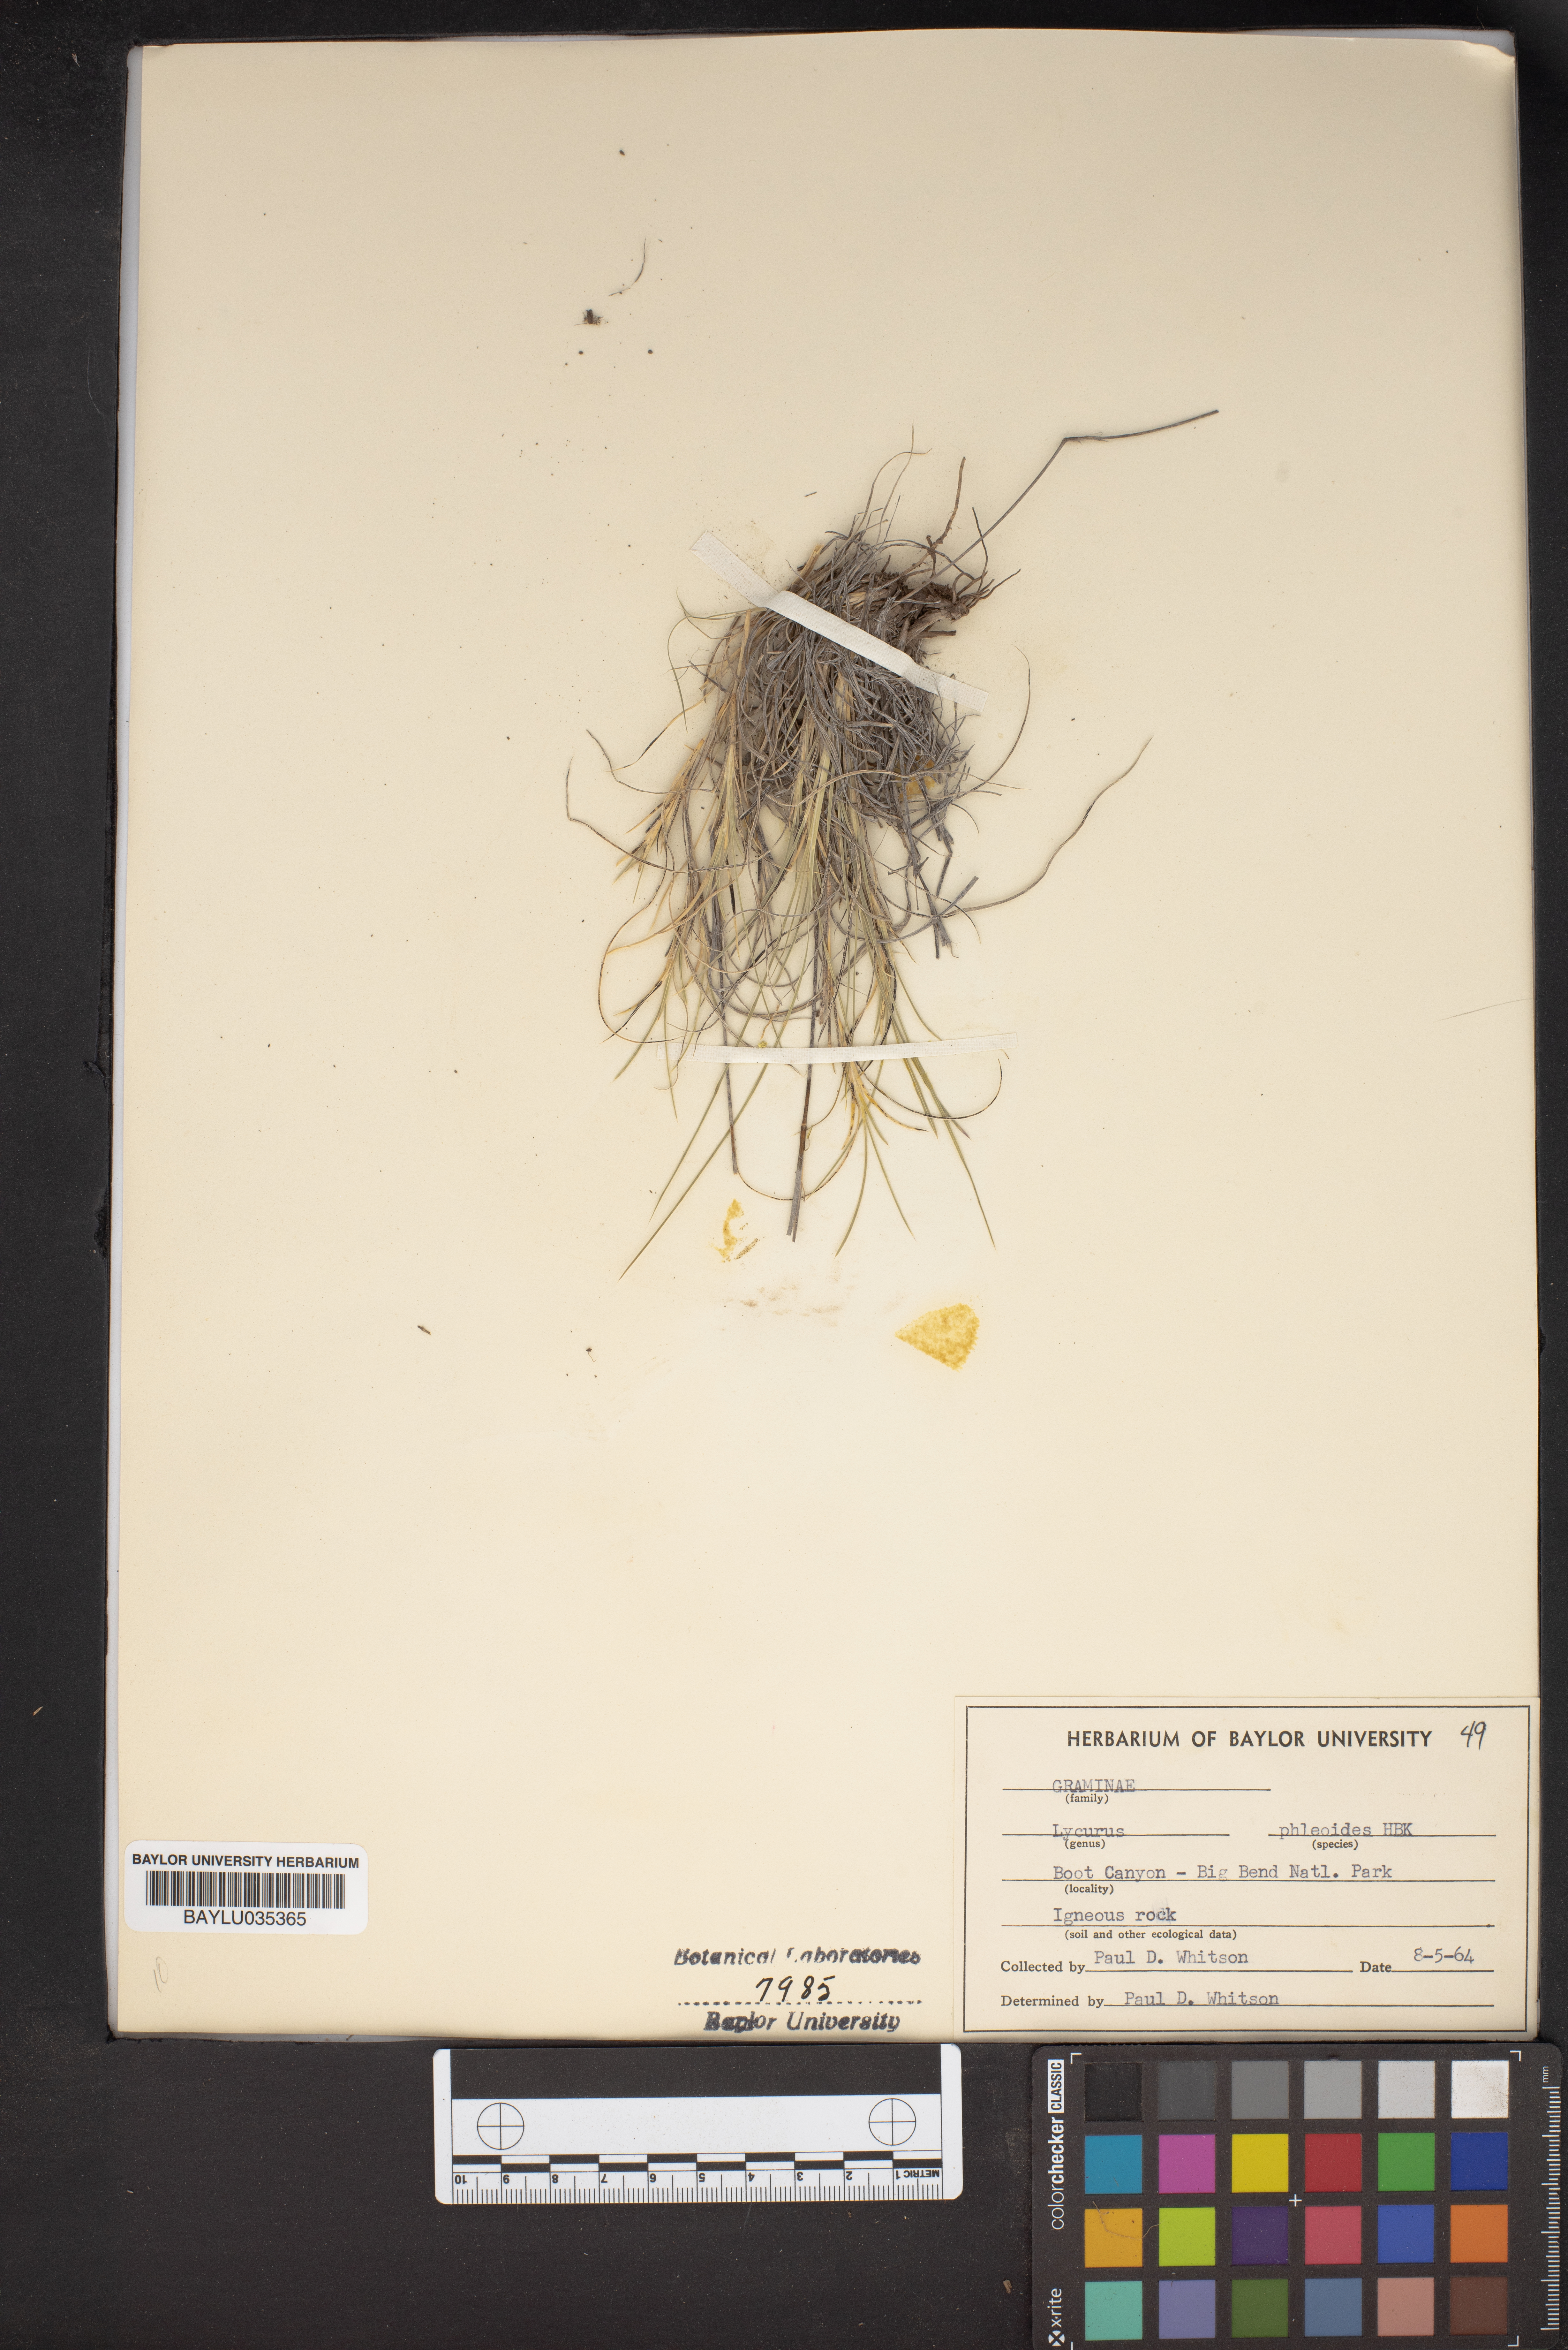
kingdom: Plantae
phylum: Tracheophyta
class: Liliopsida
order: Poales
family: Poaceae
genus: Muhlenbergia
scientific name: Muhlenbergia phleoides
